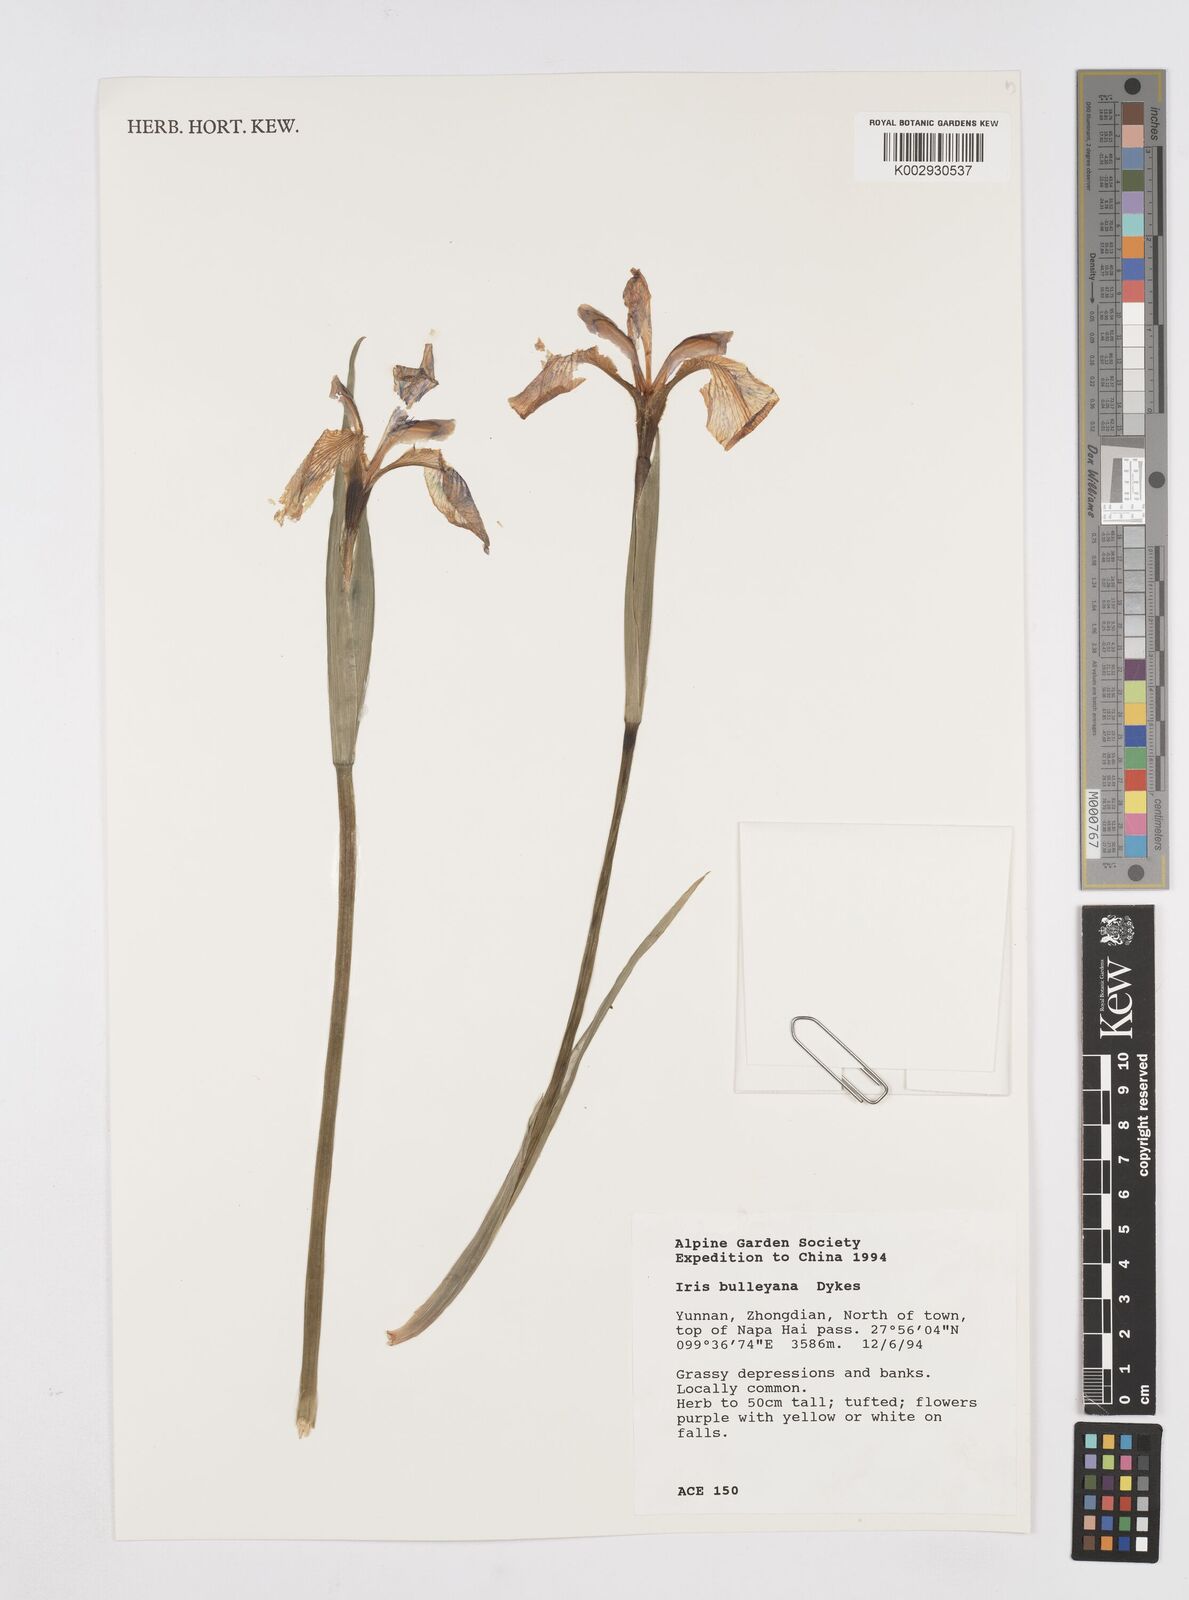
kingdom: Plantae
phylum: Tracheophyta
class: Liliopsida
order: Asparagales
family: Iridaceae
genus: Iris
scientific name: Iris bulleyana
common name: Southwest iris
